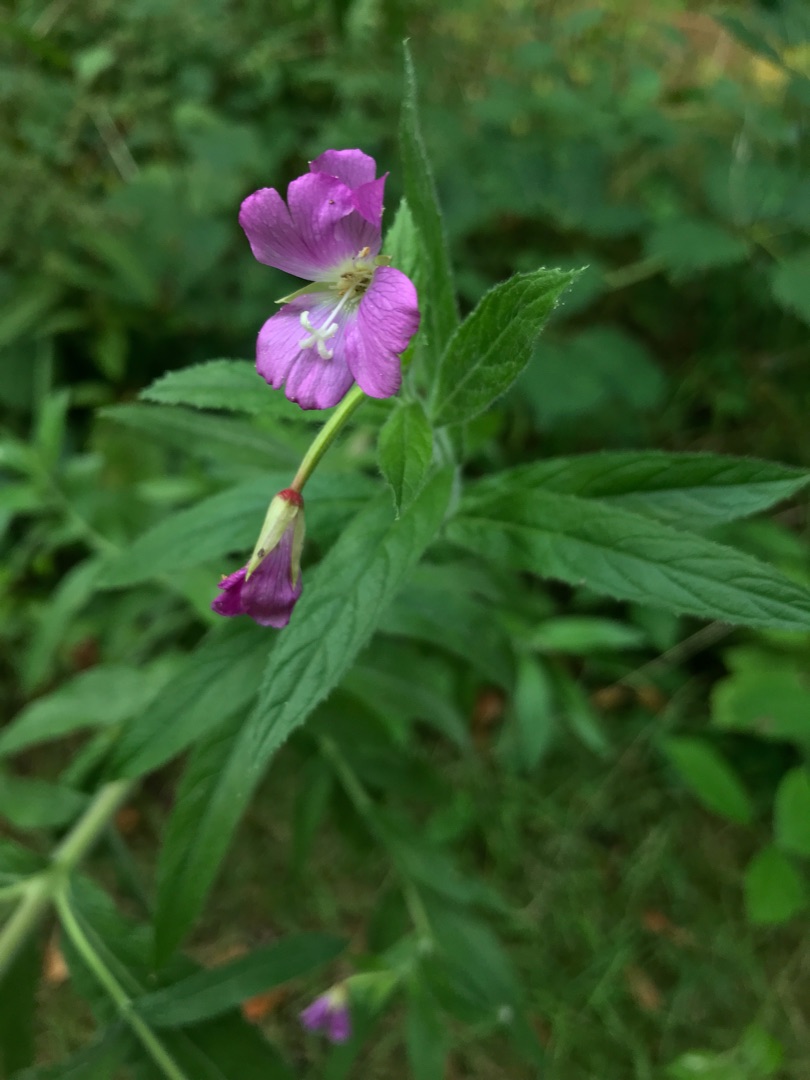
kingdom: Plantae
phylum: Tracheophyta
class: Magnoliopsida
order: Myrtales
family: Onagraceae
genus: Epilobium
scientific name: Epilobium hirsutum
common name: Lådden dueurt
